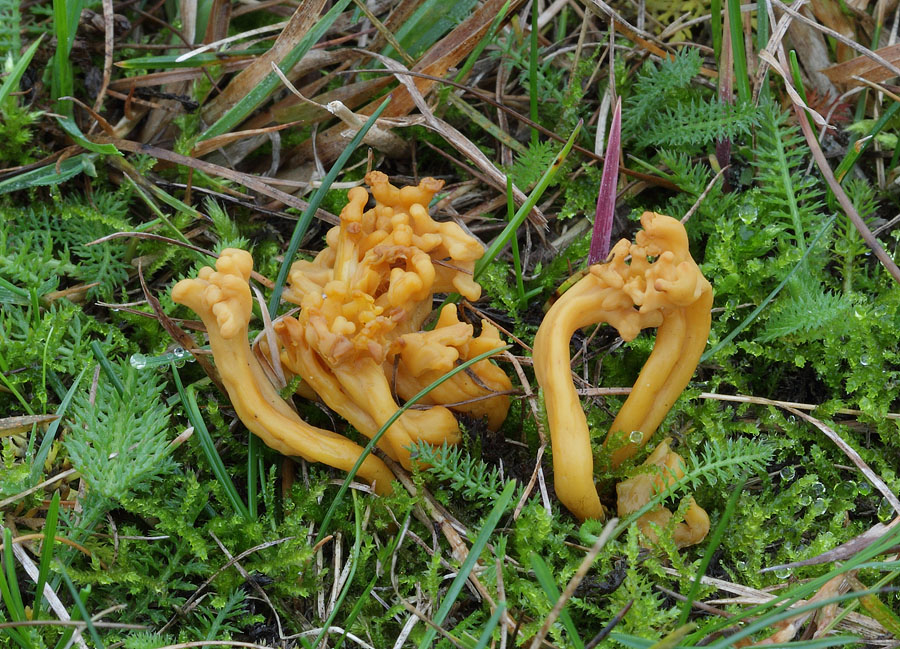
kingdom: Fungi
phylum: Basidiomycota
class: Agaricomycetes
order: Agaricales
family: Clavariaceae
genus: Clavulinopsis
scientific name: Clavulinopsis corniculata
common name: eng-køllesvamp
